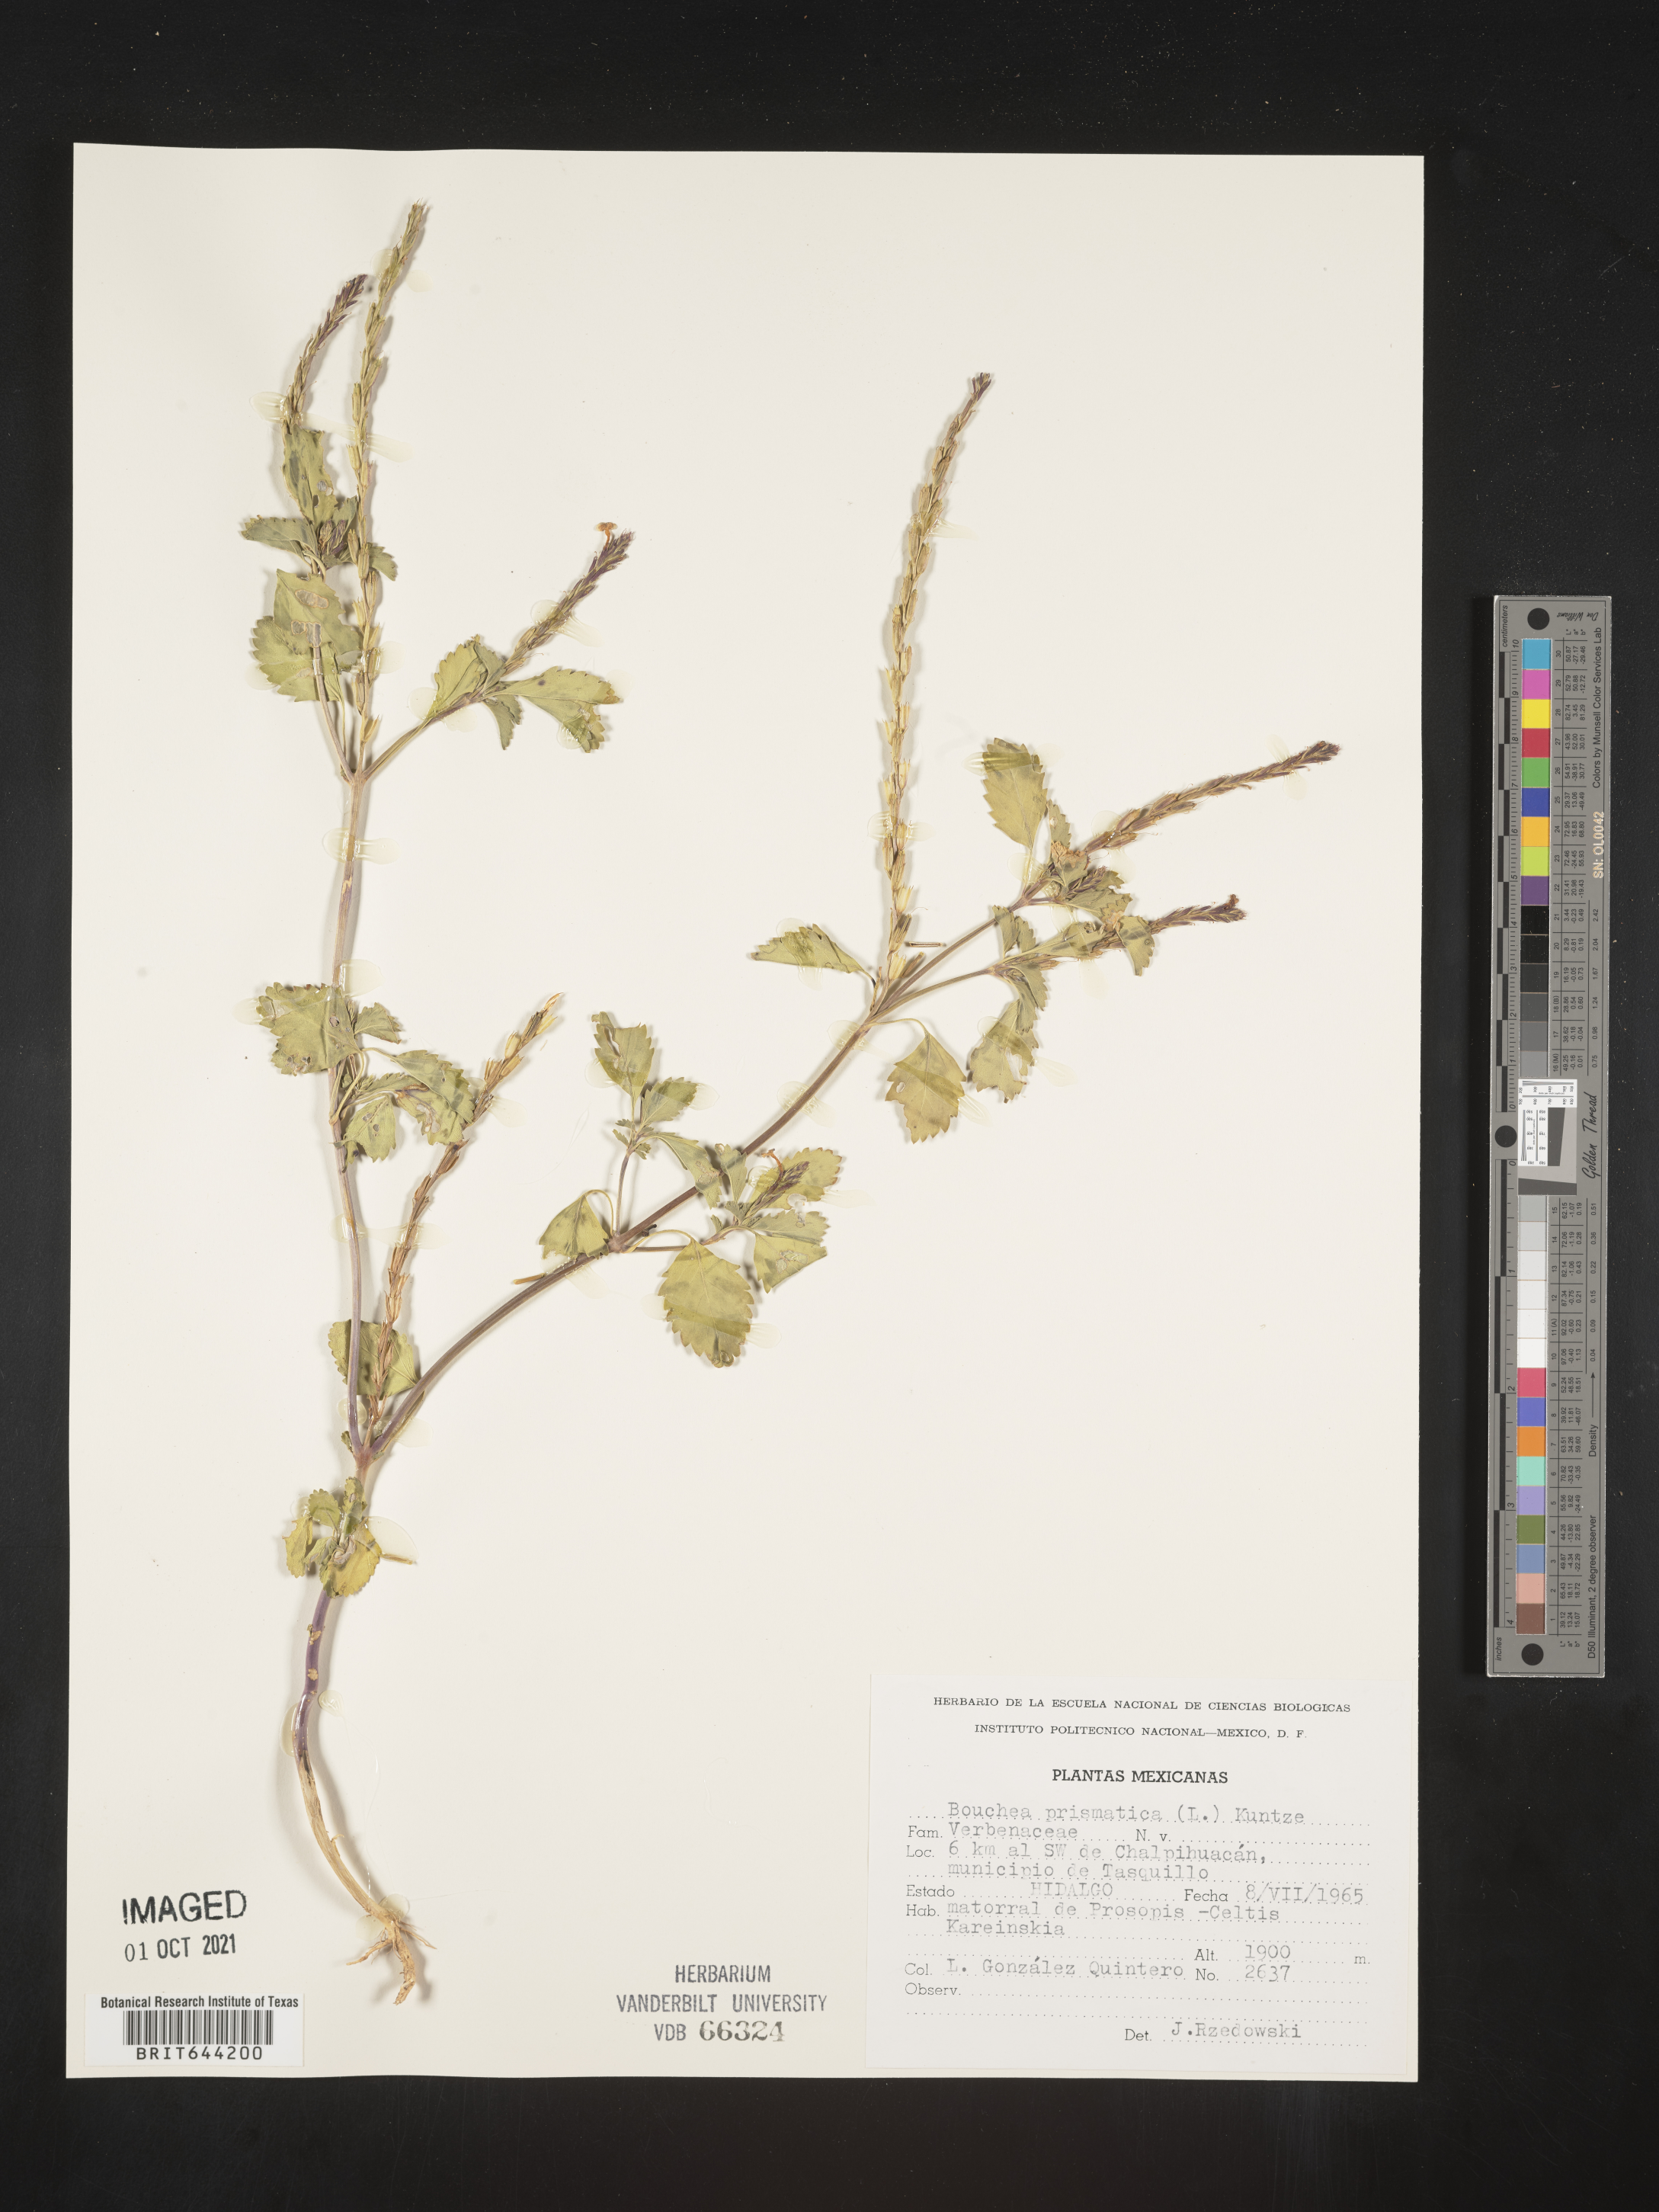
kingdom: Plantae
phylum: Tracheophyta
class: Magnoliopsida
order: Lamiales
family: Verbenaceae
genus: Bouchea
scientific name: Bouchea
